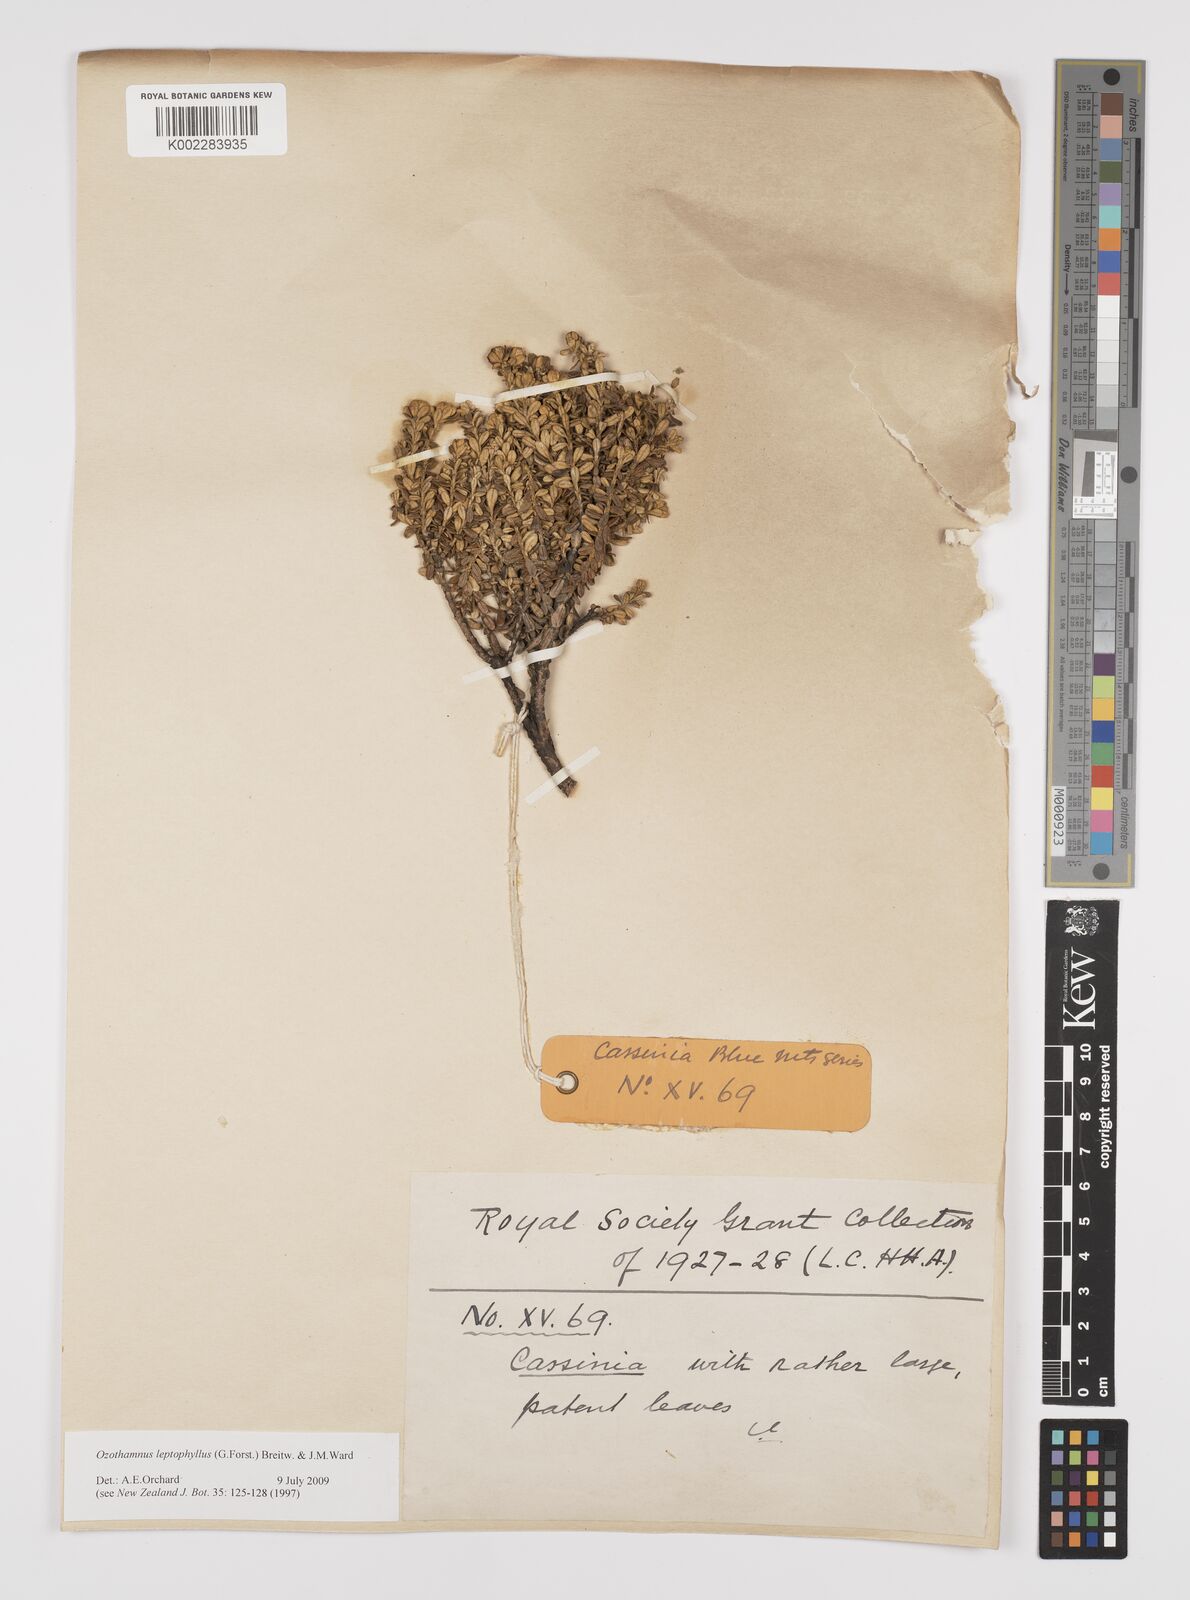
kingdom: Plantae
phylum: Tracheophyta
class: Magnoliopsida
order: Asterales
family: Asteraceae
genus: Ozothamnus
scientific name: Ozothamnus leptophyllus
